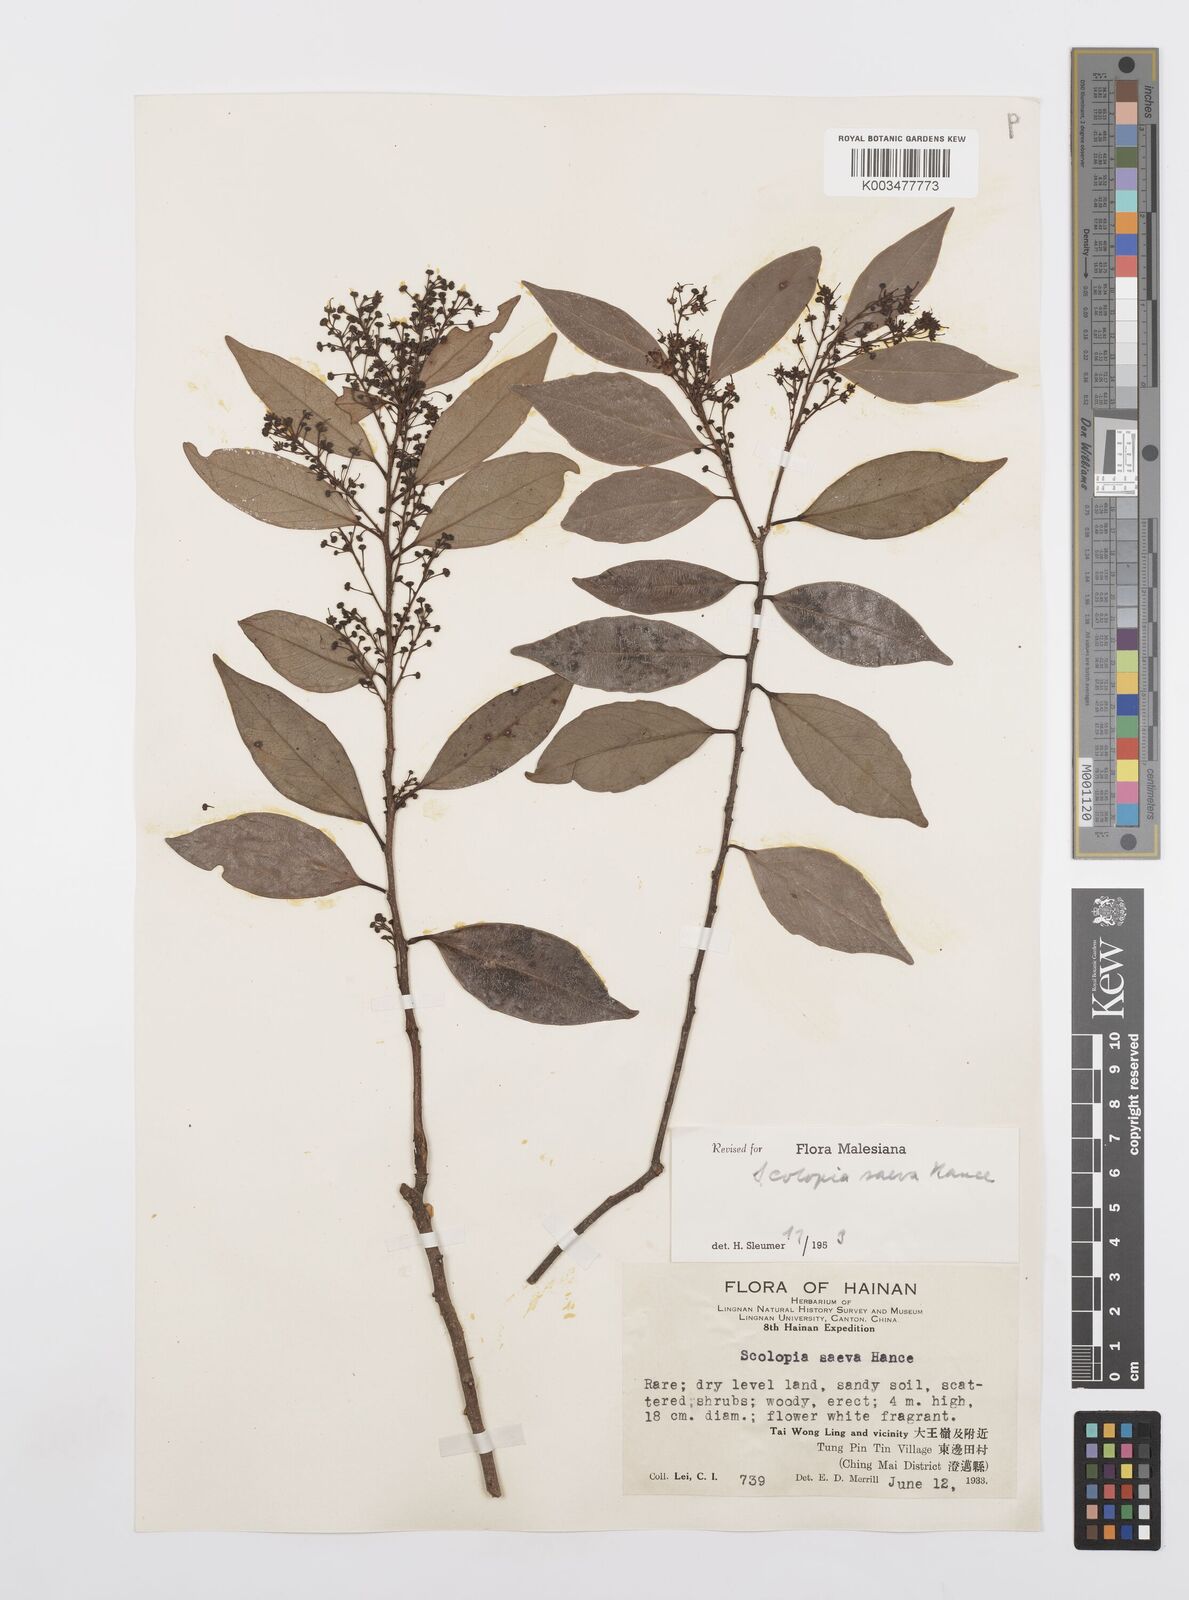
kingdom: Plantae
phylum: Tracheophyta
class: Magnoliopsida
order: Malpighiales
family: Salicaceae
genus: Scolopia
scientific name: Scolopia saeva
